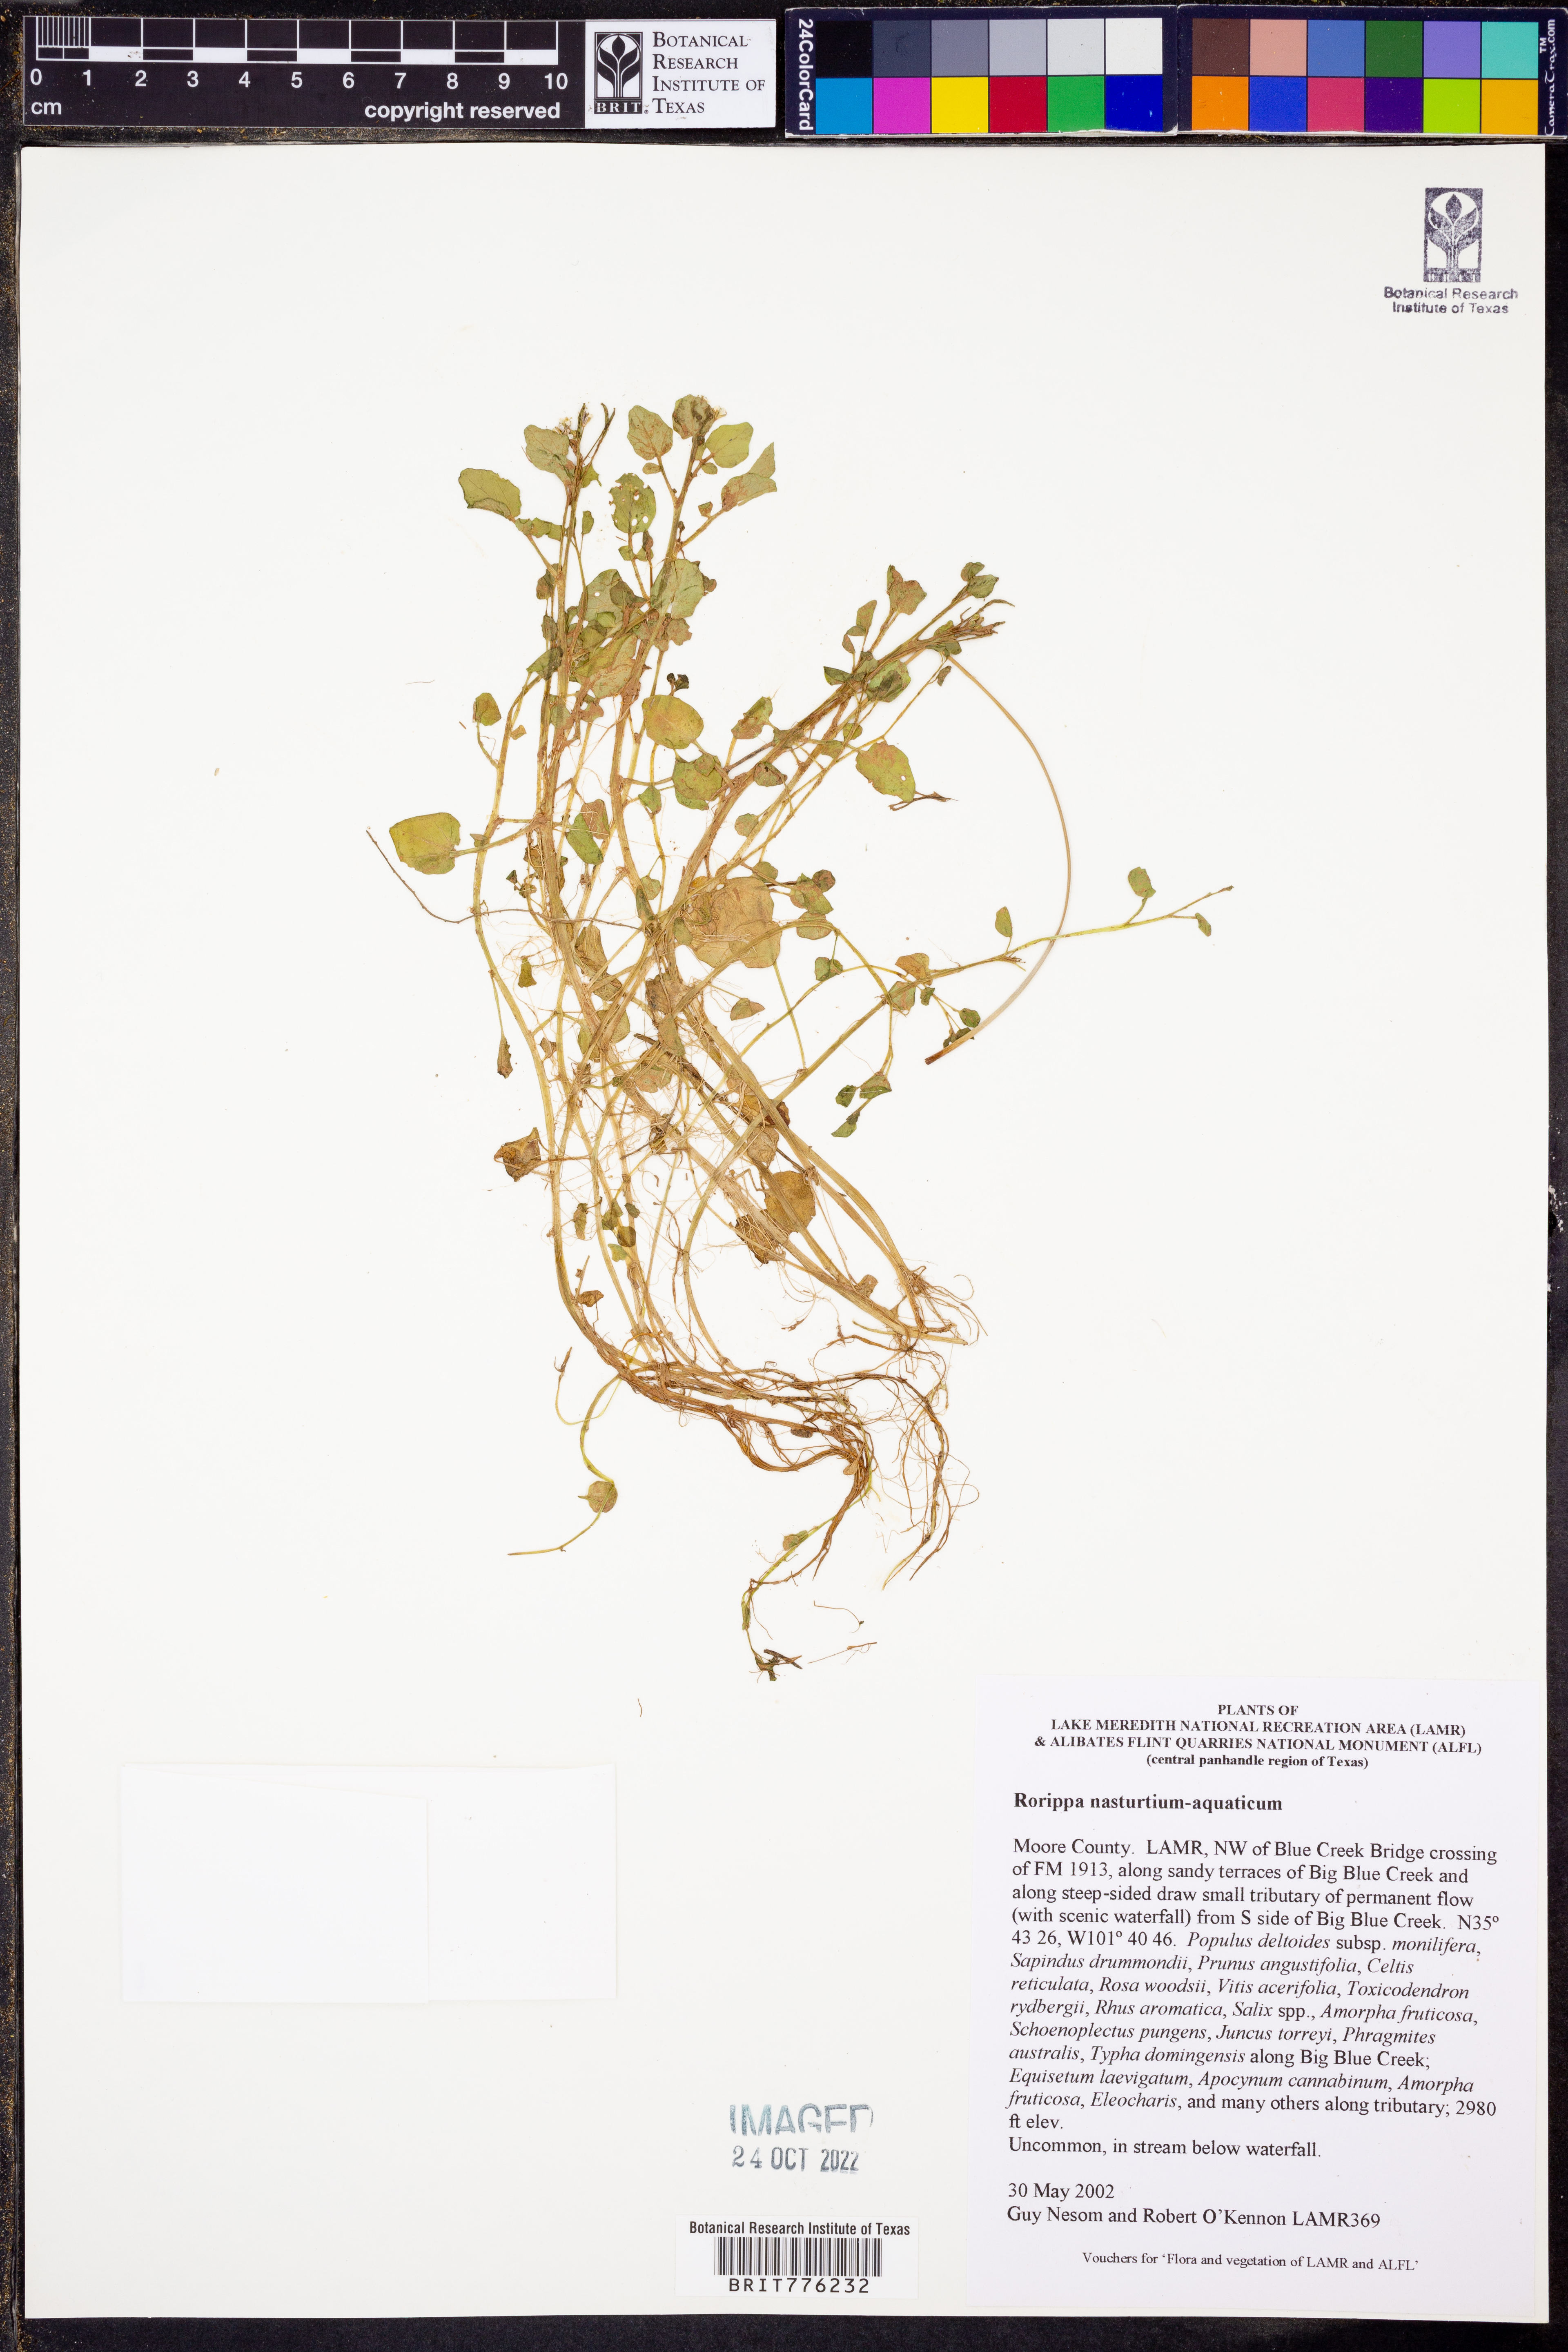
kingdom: Plantae
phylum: Tracheophyta
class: Magnoliopsida
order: Brassicales
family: Brassicaceae
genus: Nasturtium
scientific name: Nasturtium officinale
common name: Watercress
